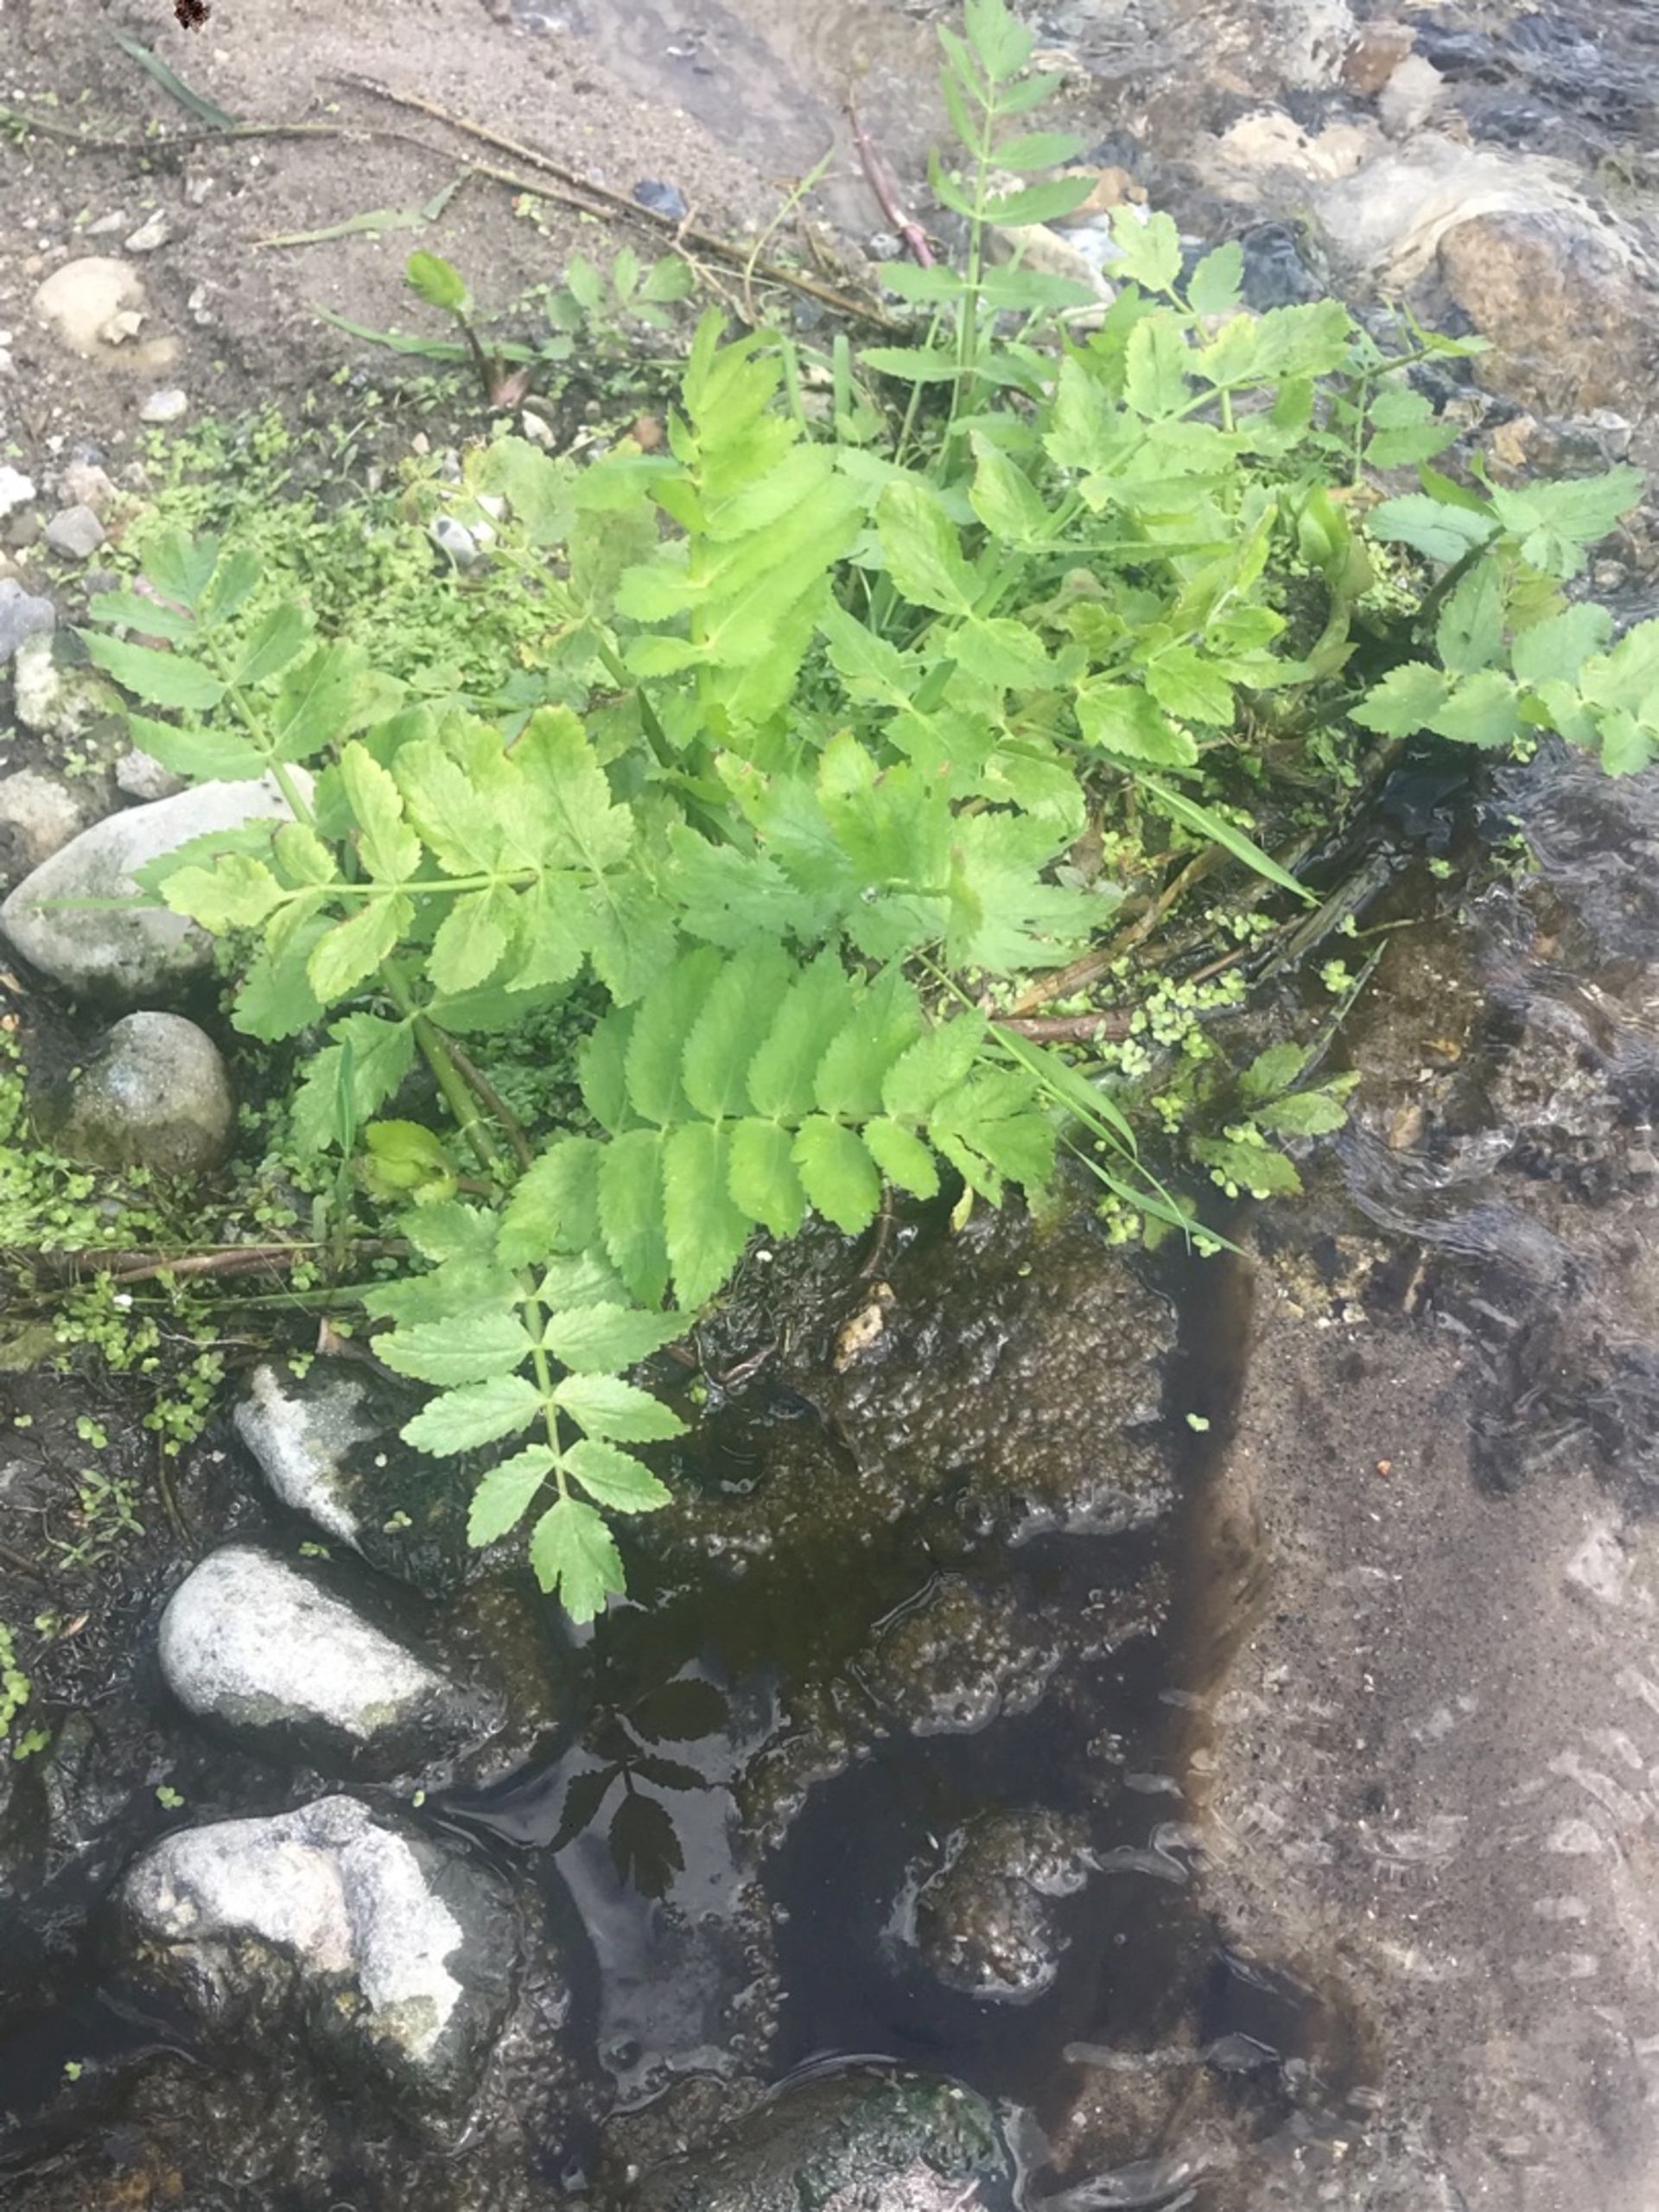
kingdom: Plantae
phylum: Tracheophyta
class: Magnoliopsida
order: Apiales
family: Apiaceae
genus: Berula
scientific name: Berula erecta
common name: Sideskærm
